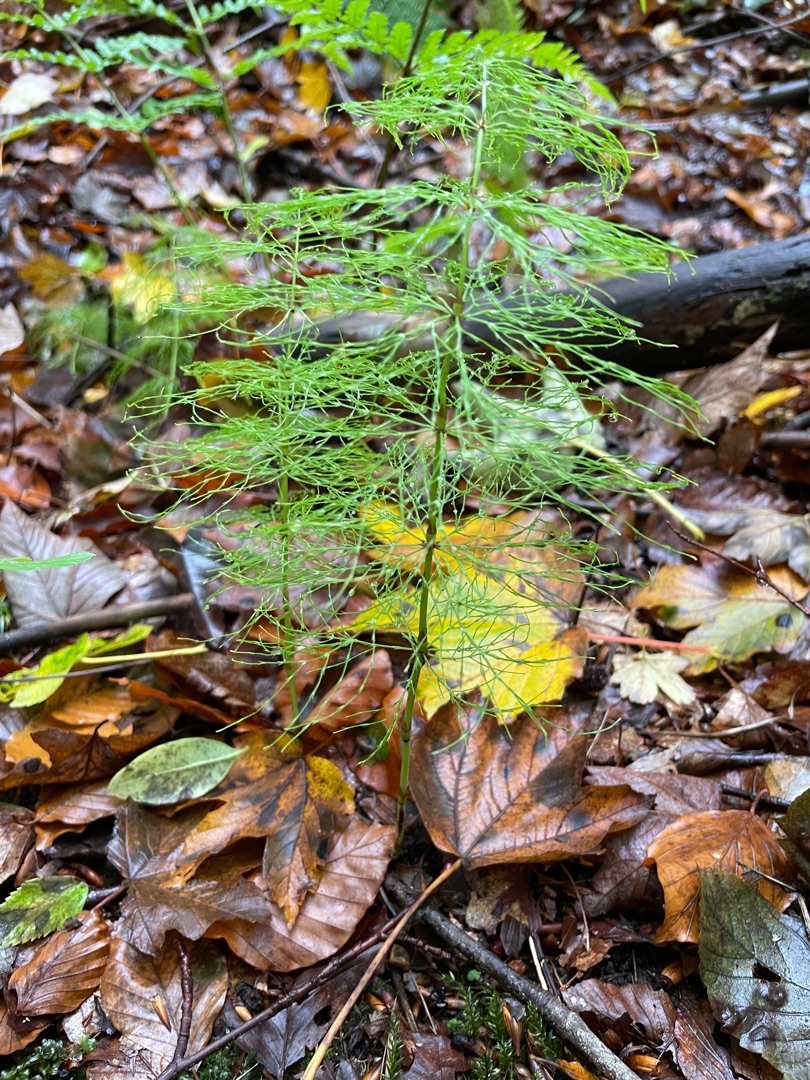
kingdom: Plantae
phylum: Tracheophyta
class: Polypodiopsida
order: Equisetales
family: Equisetaceae
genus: Equisetum
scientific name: Equisetum sylvaticum
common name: Skov-padderok
